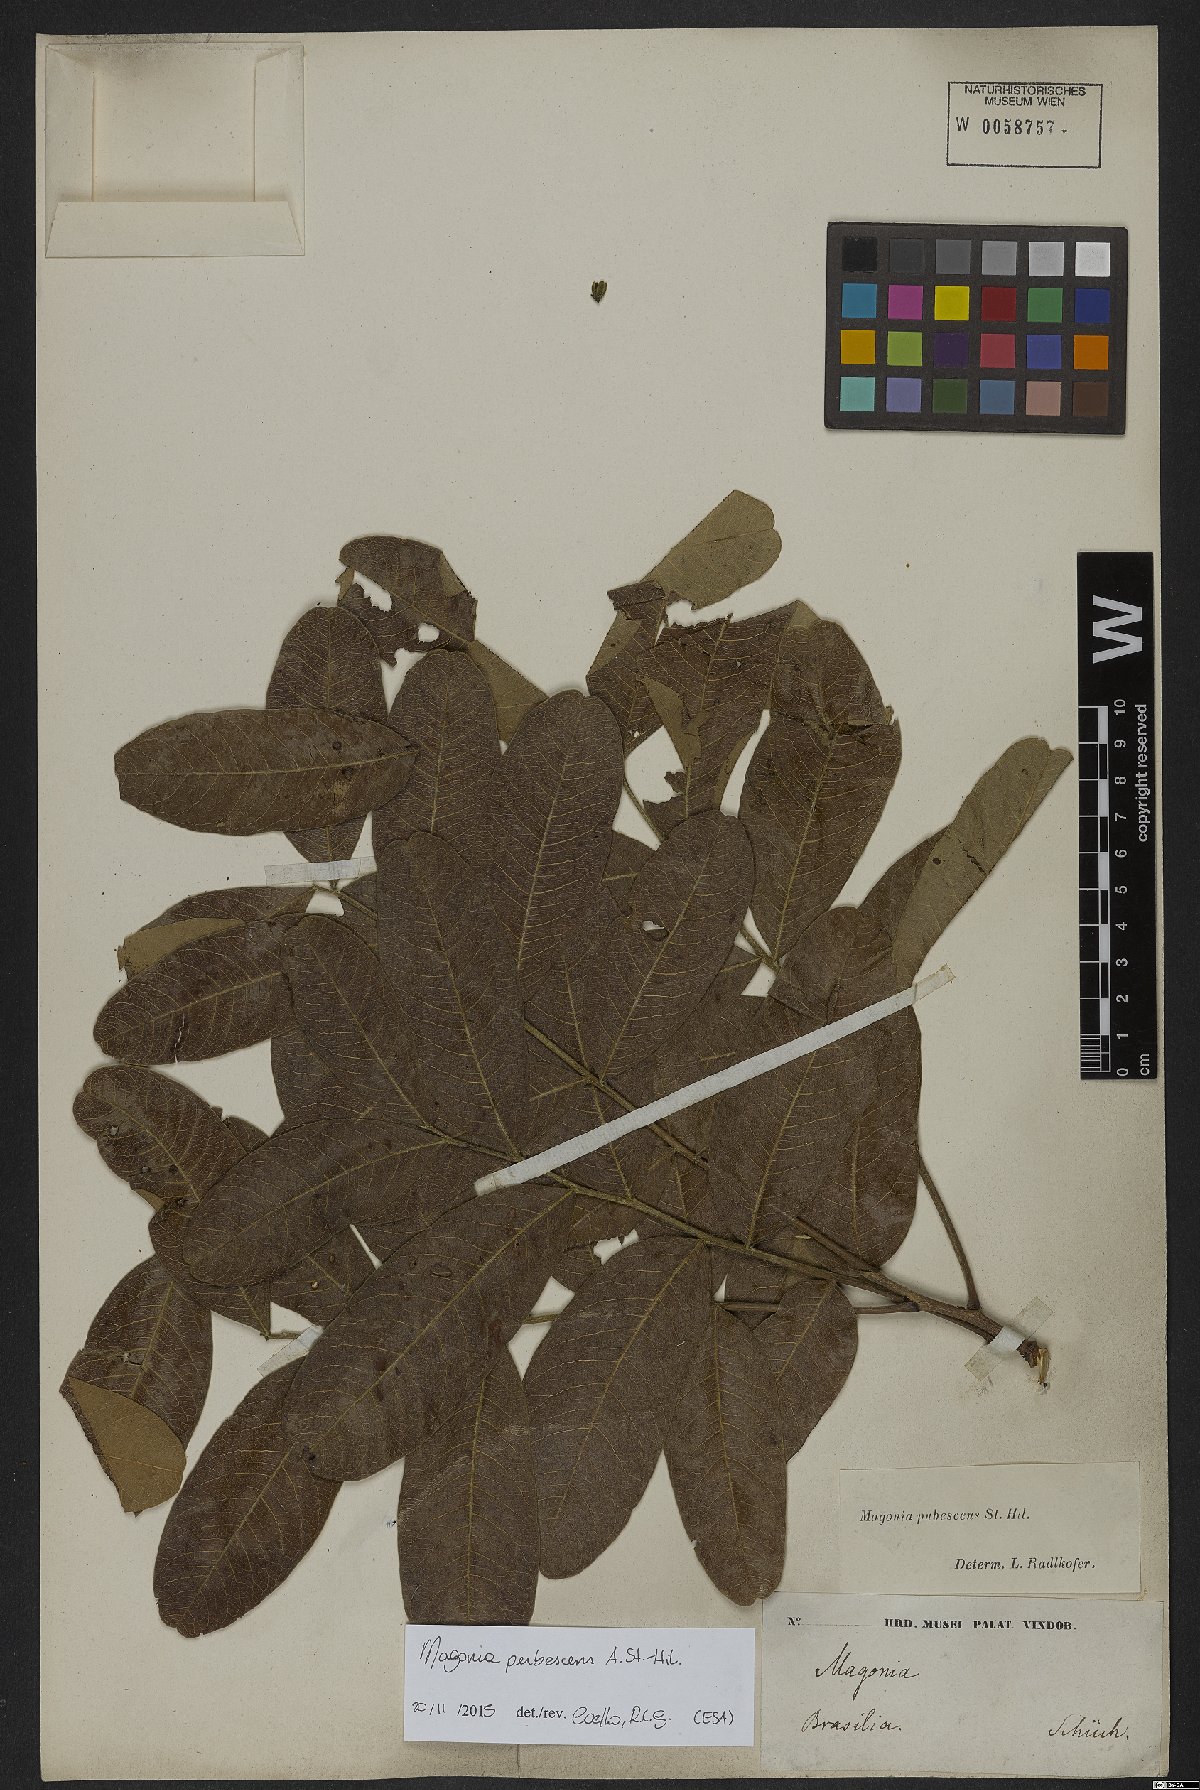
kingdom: Plantae
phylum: Tracheophyta
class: Magnoliopsida
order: Sapindales
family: Sapindaceae
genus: Magonia
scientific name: Magonia pubescens
